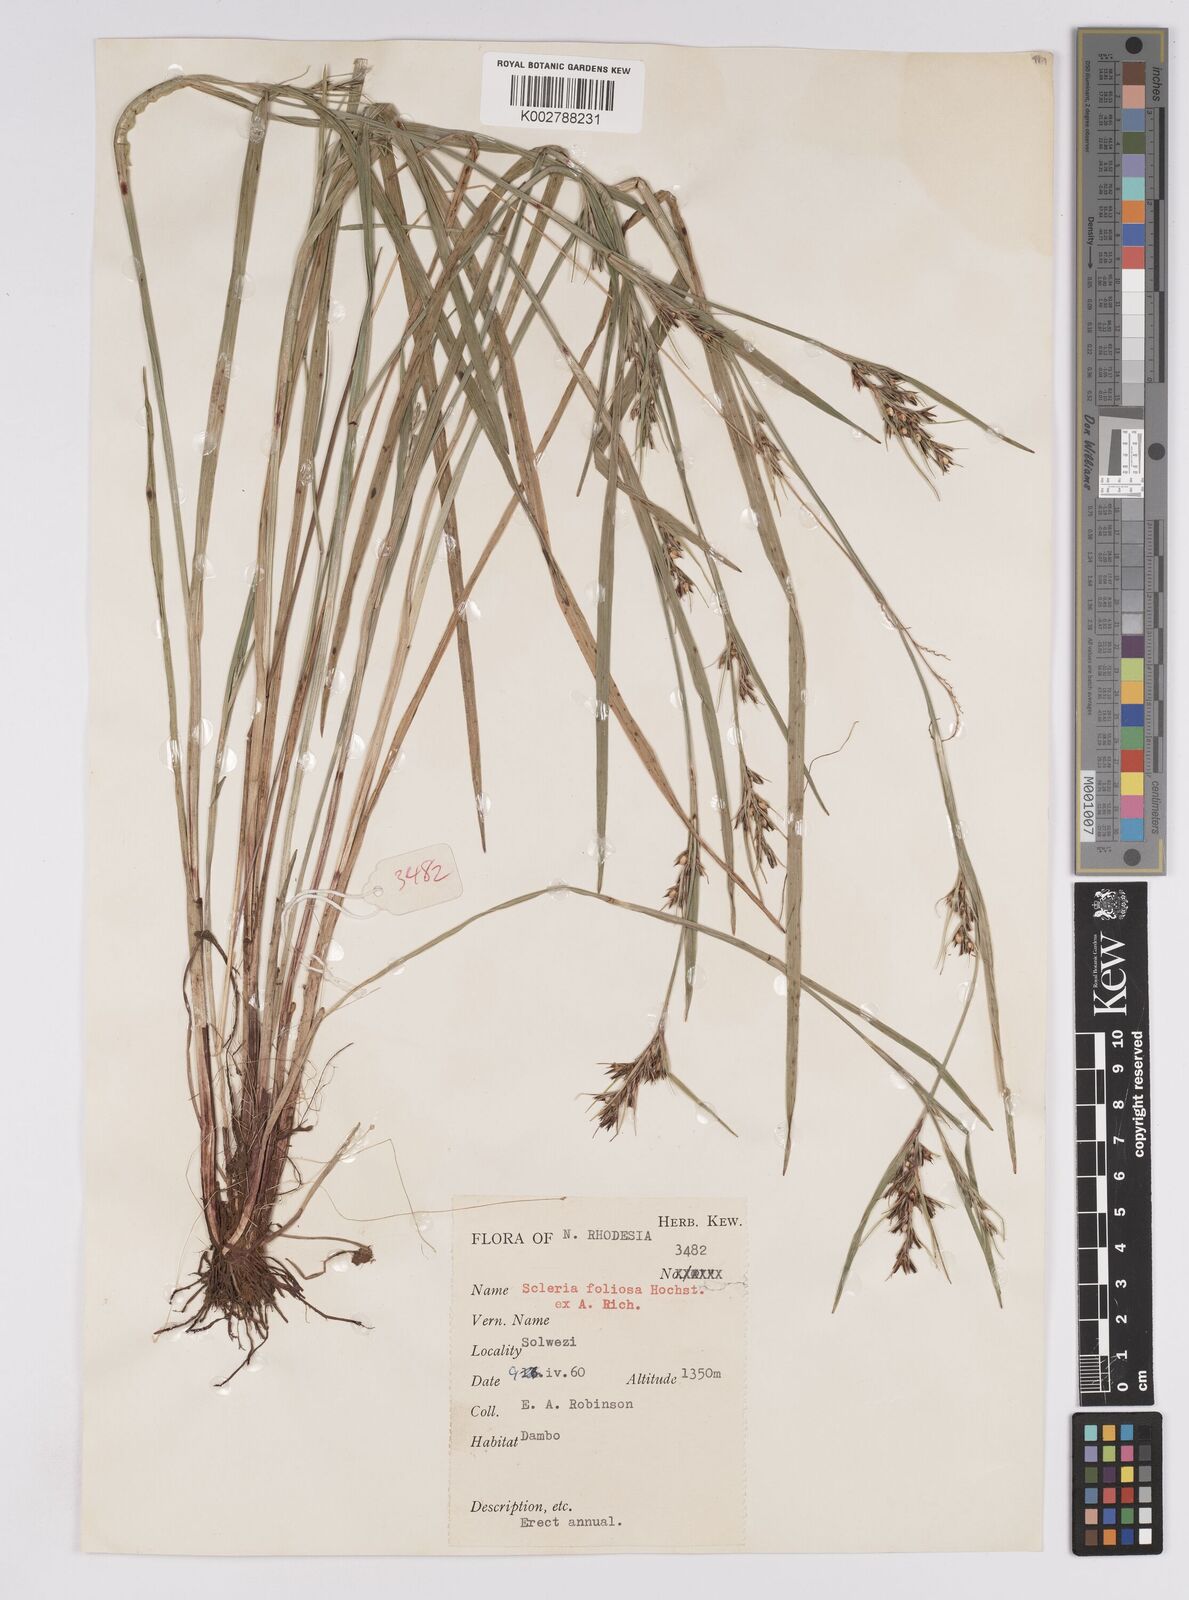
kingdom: Plantae
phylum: Tracheophyta
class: Liliopsida
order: Poales
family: Cyperaceae
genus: Scleria
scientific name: Scleria foliosa
